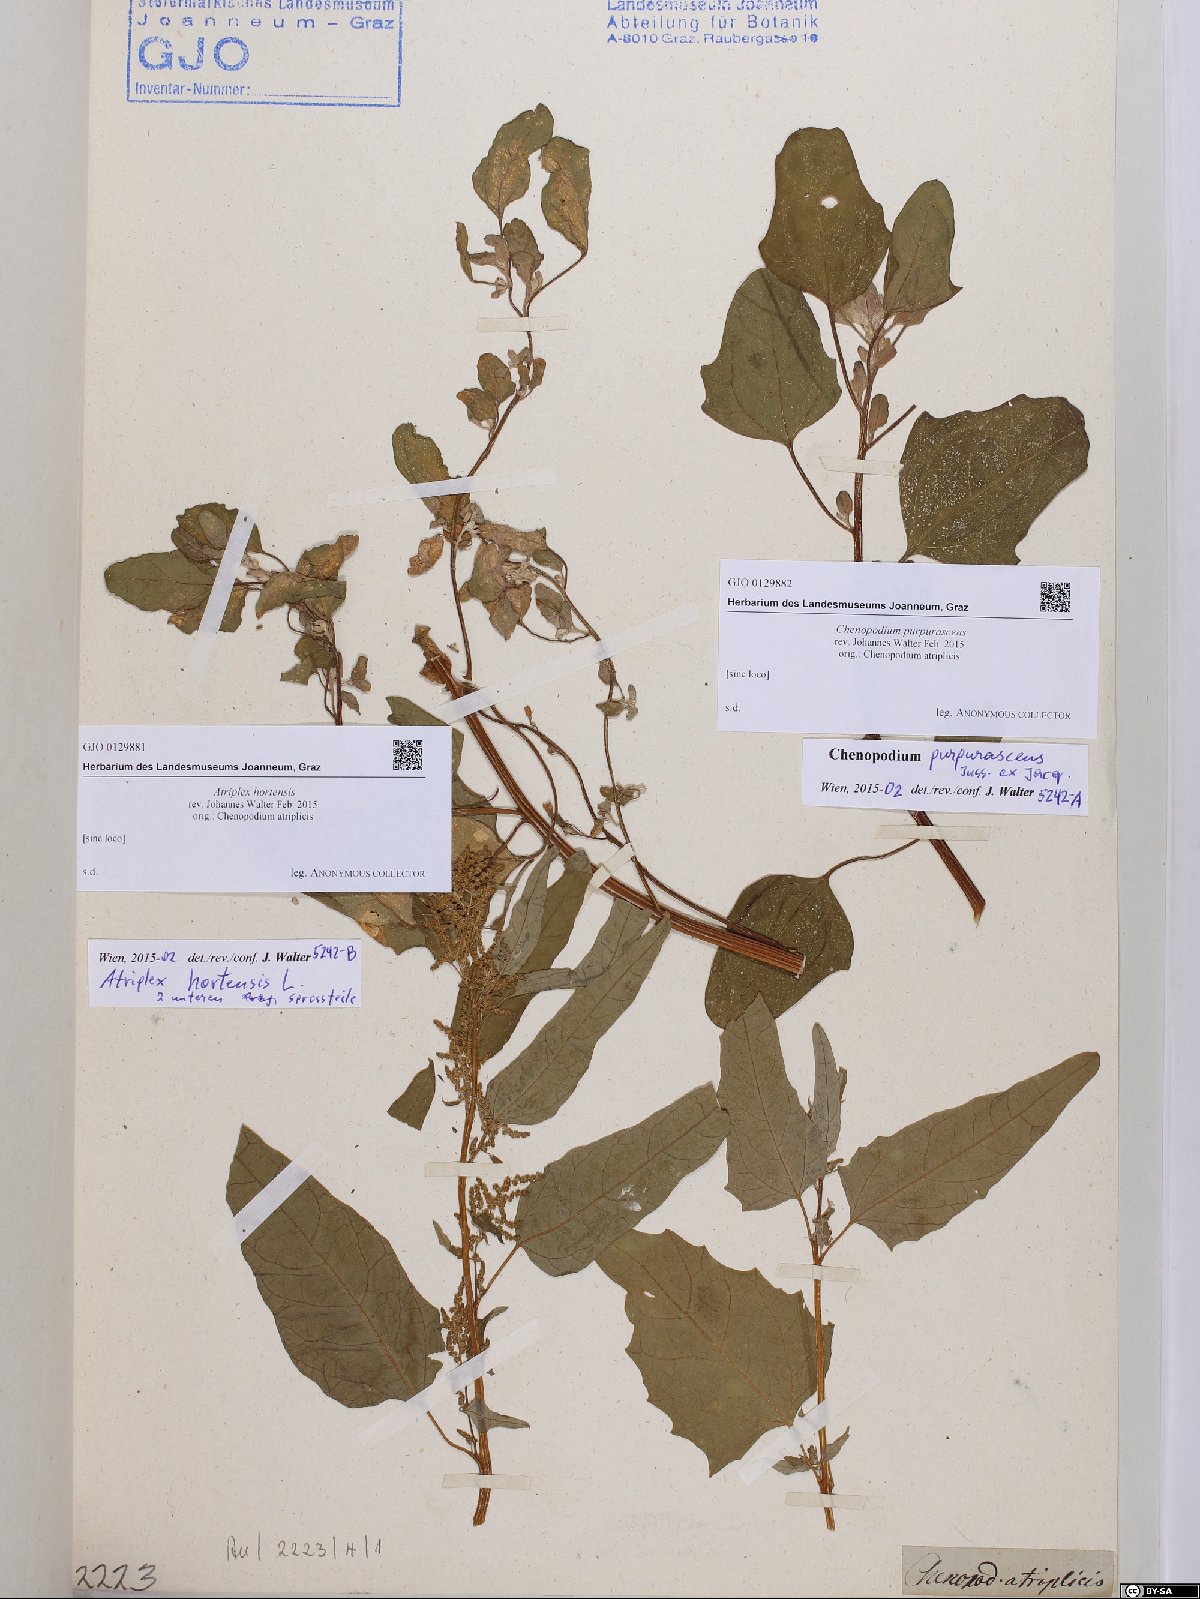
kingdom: Plantae
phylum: Tracheophyta
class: Magnoliopsida
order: Caryophyllales
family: Amaranthaceae
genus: Atriplex
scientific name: Atriplex hortensis
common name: Garden orache
